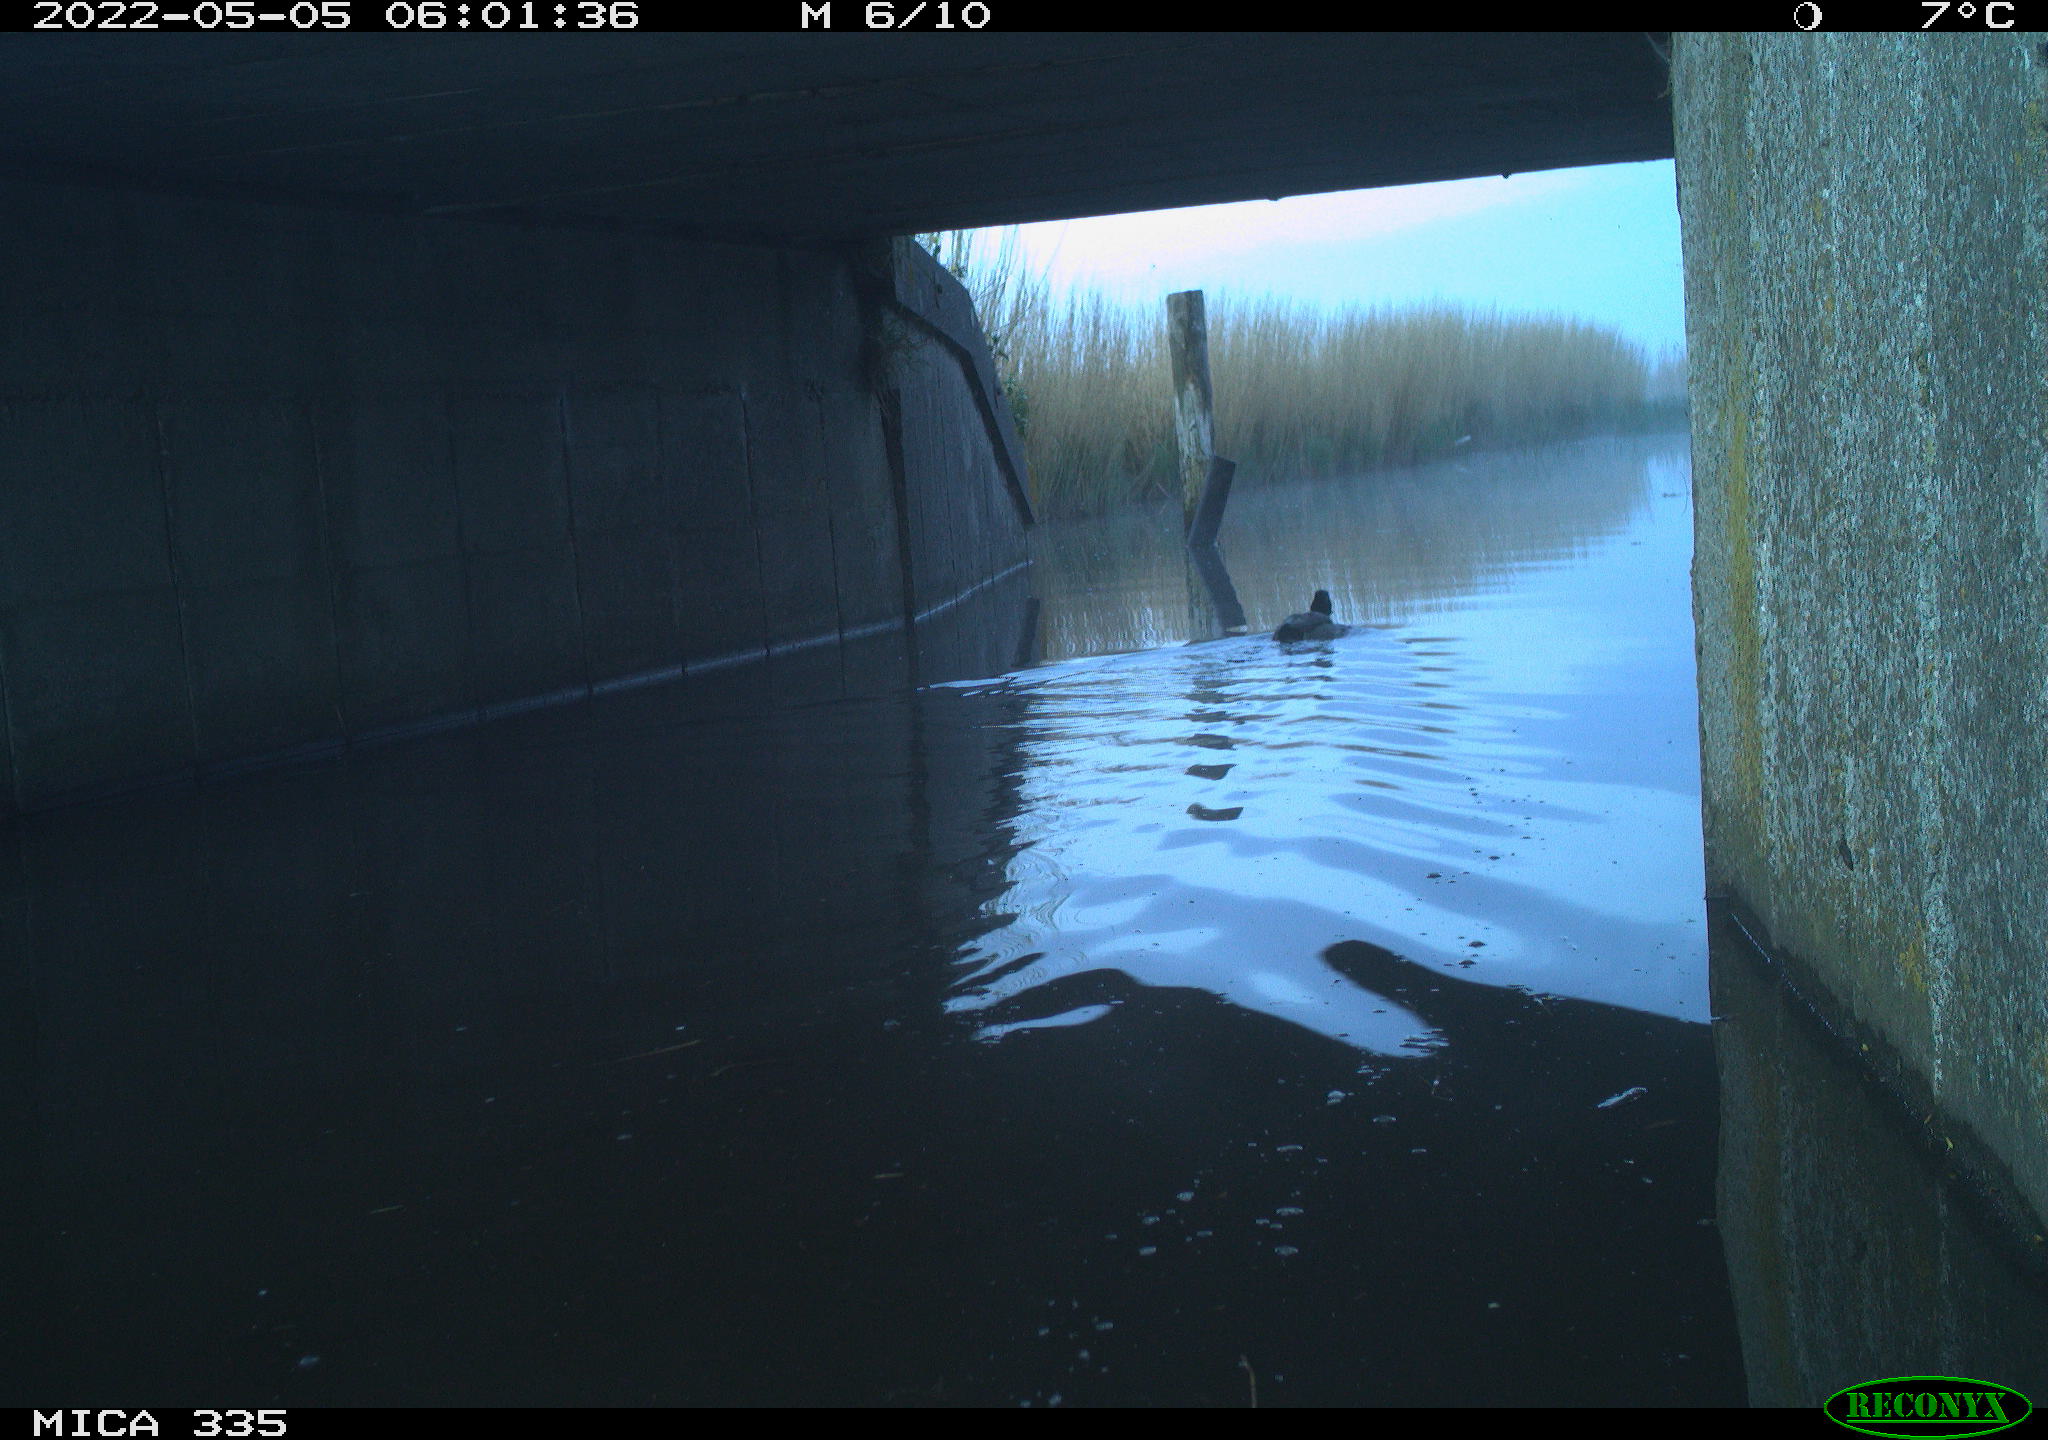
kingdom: Animalia
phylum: Chordata
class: Aves
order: Anseriformes
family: Anatidae
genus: Anas
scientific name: Anas platyrhynchos
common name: Mallard
